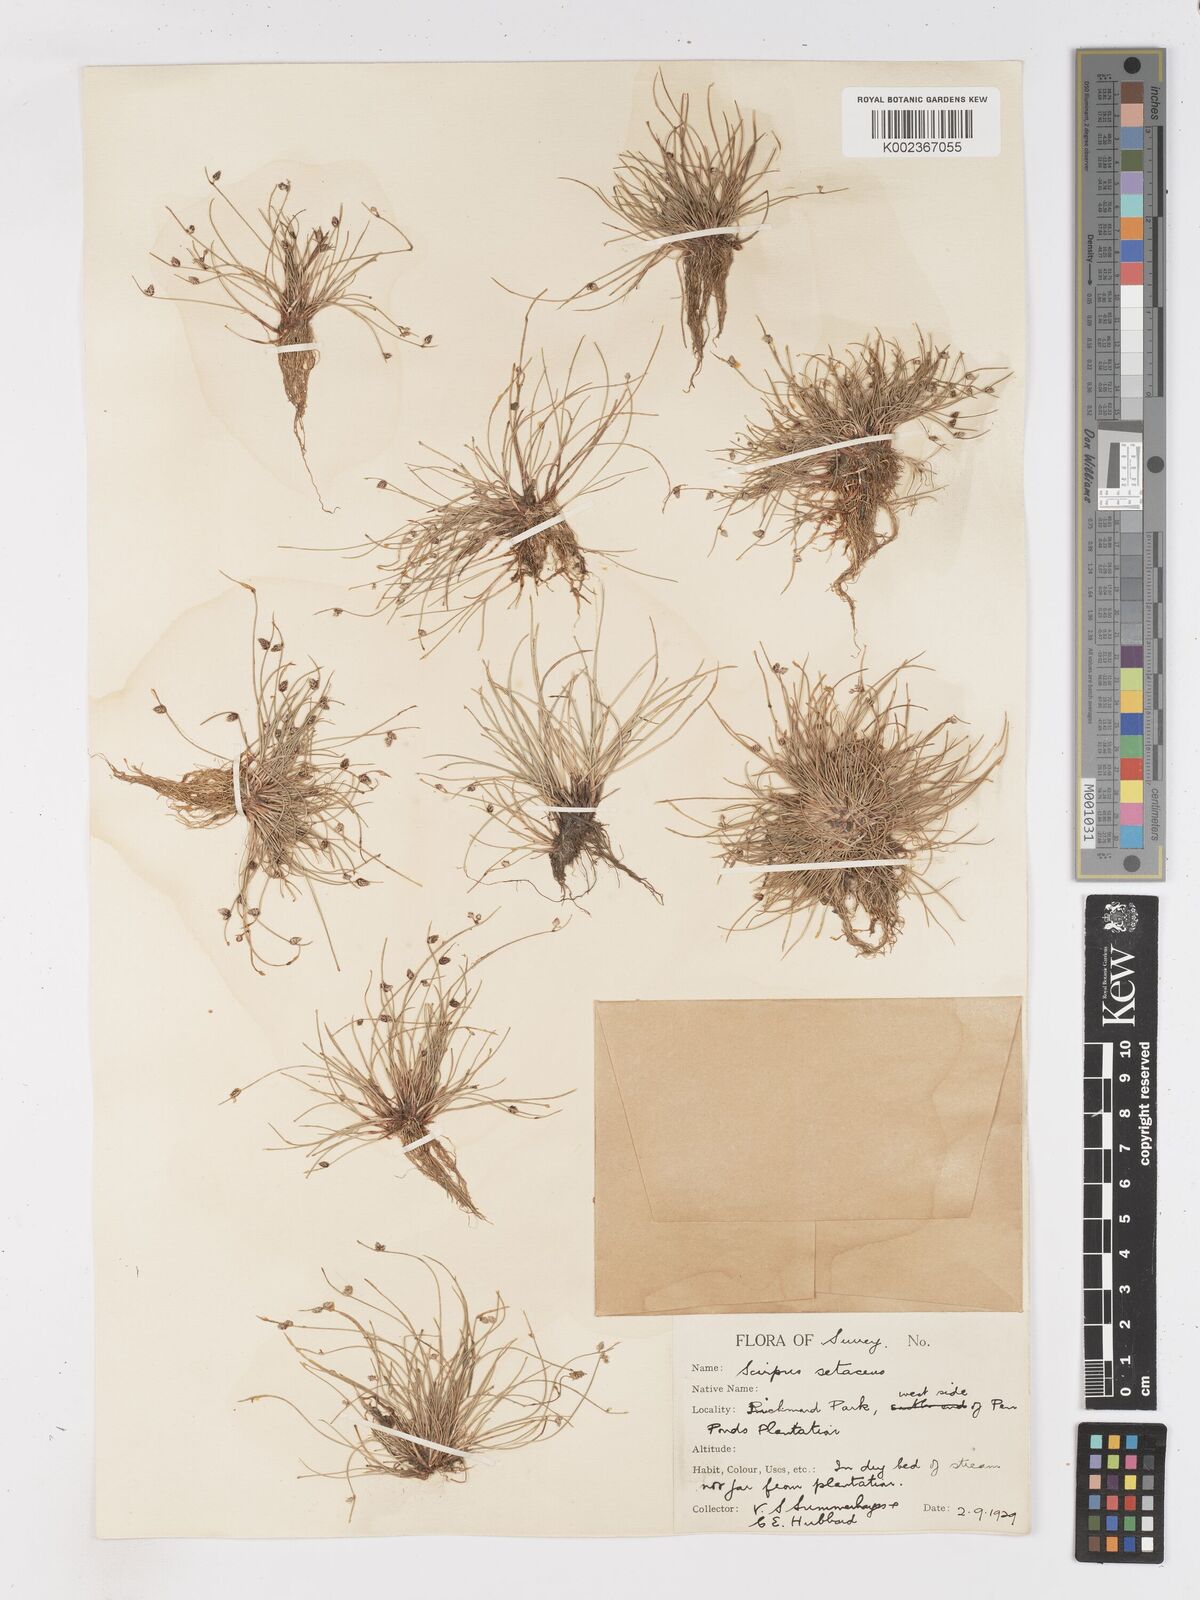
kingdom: Plantae
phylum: Tracheophyta
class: Liliopsida
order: Poales
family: Cyperaceae
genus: Isolepis
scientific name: Isolepis setacea
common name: Bristle club-rush
